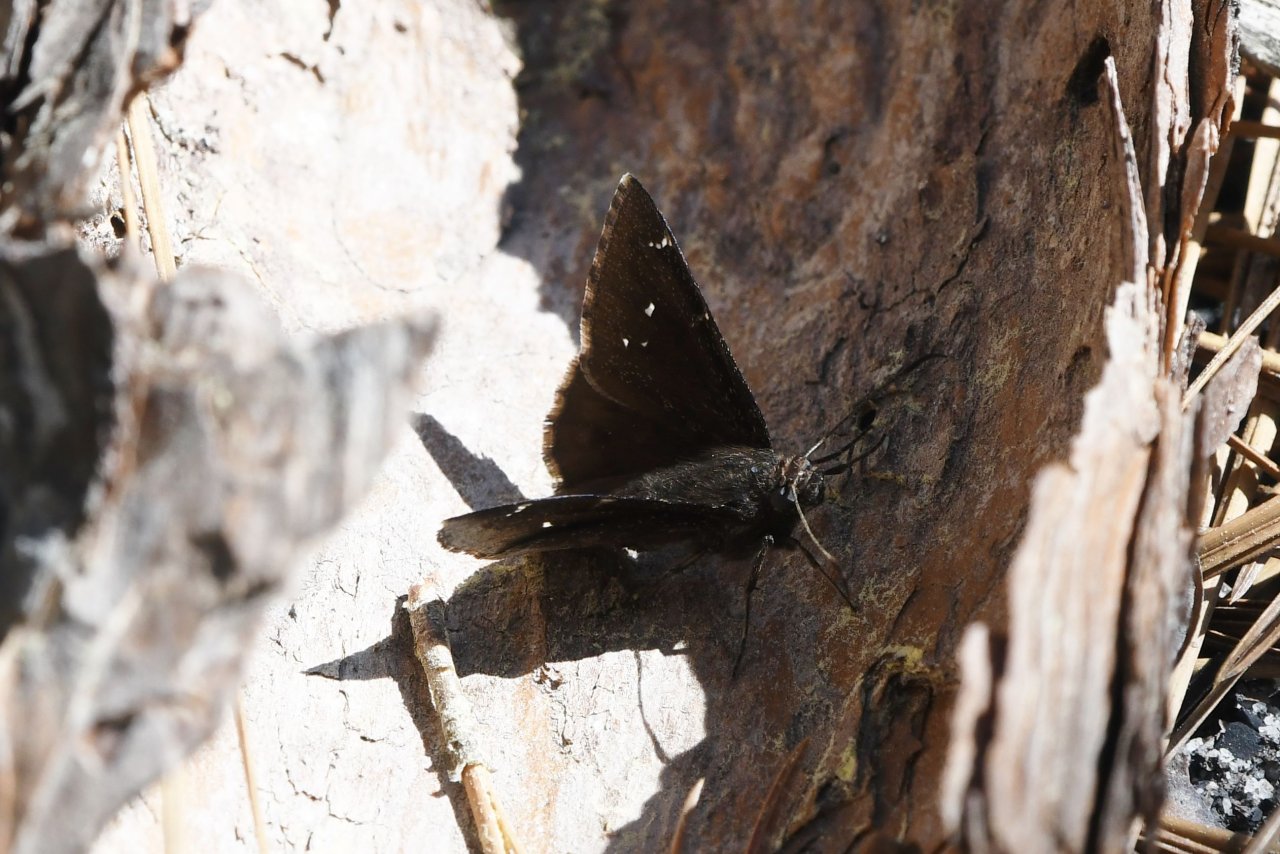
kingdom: Animalia
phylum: Arthropoda
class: Insecta
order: Lepidoptera
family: Hesperiidae
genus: Autochton
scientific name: Autochton
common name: Northern Cloudywing
